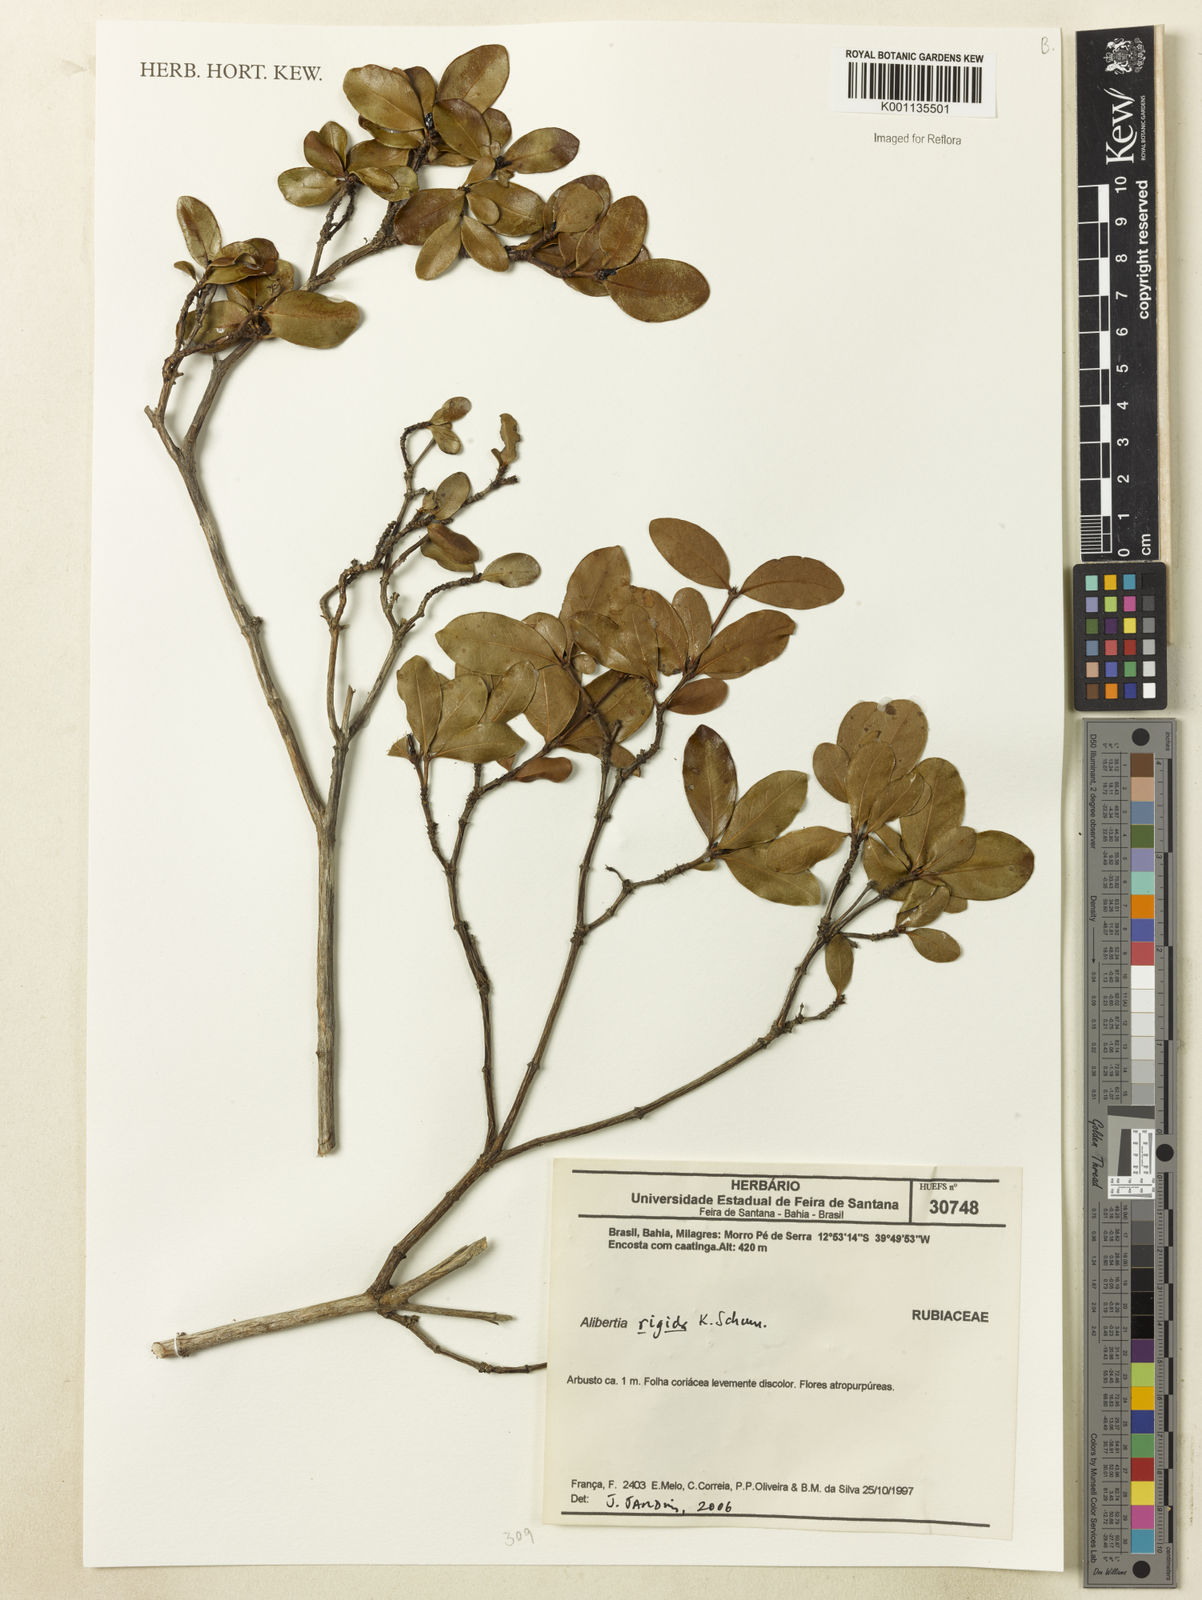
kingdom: Plantae
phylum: Tracheophyta
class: Magnoliopsida
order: Gentianales
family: Rubiaceae
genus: Cordiera
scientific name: Cordiera rigida
